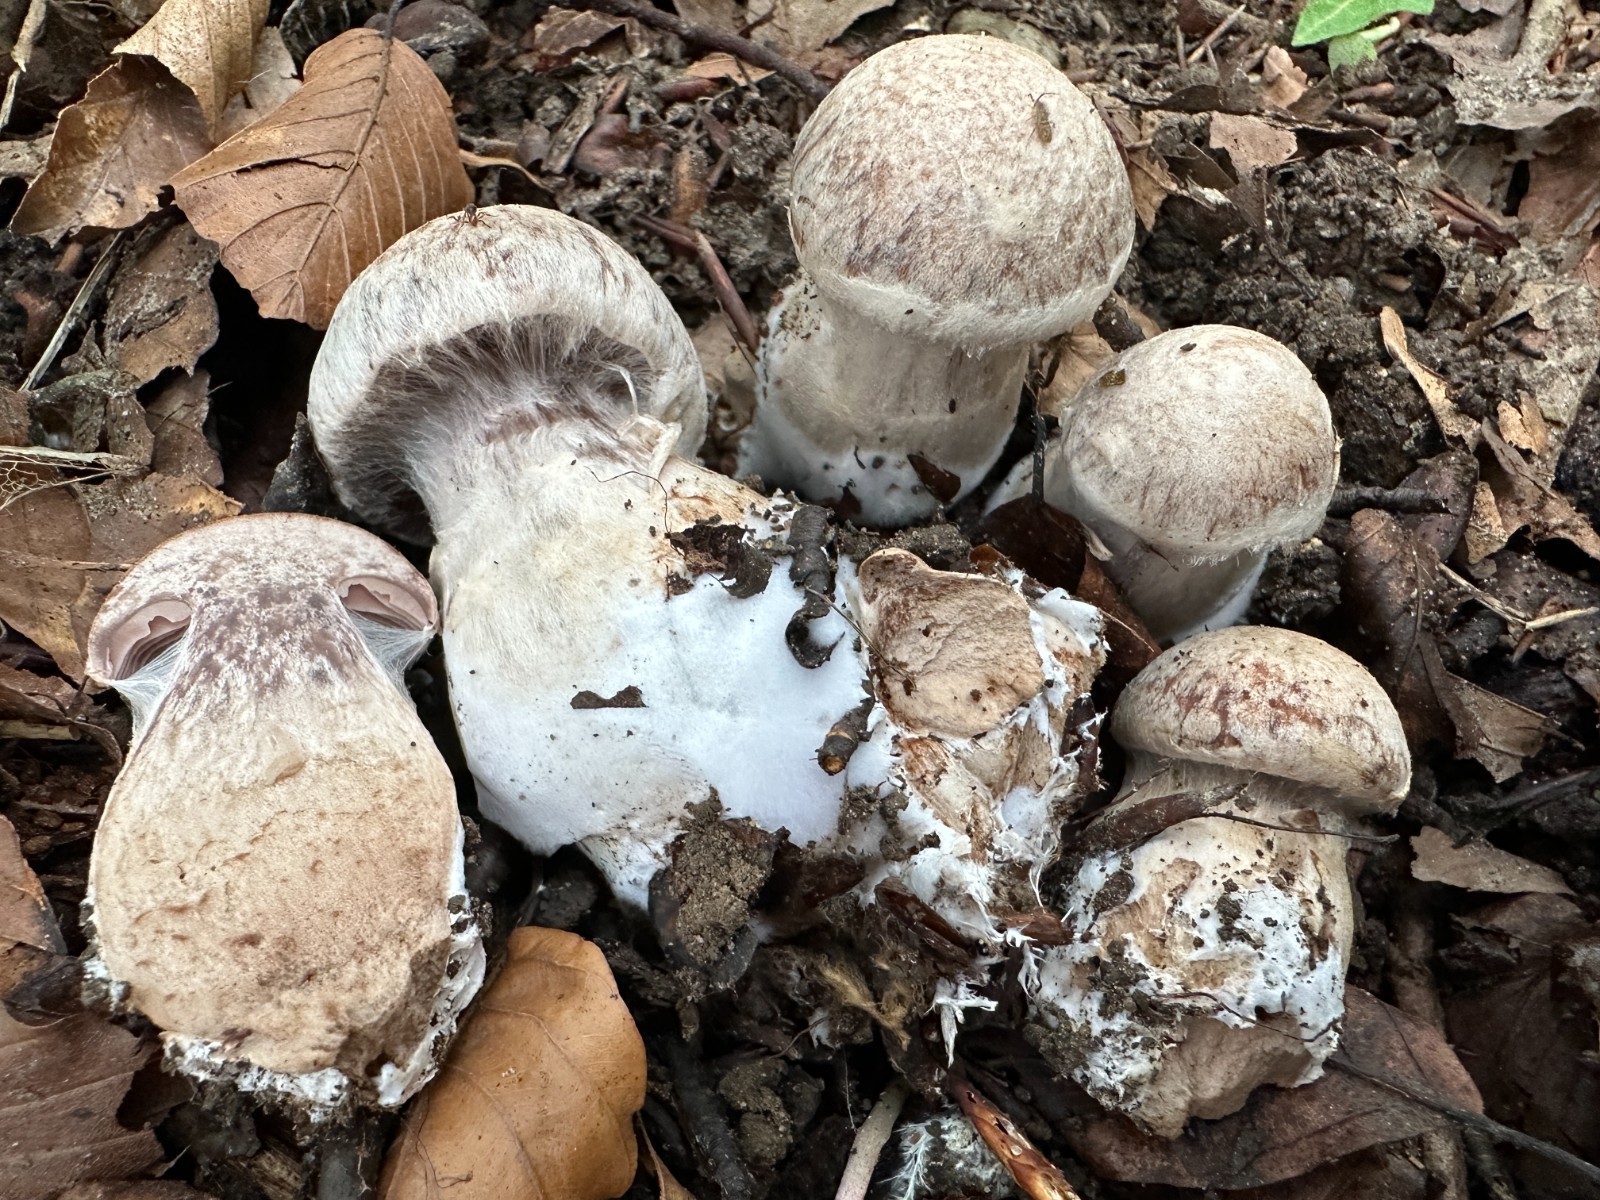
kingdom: Fungi
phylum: Basidiomycota
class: Agaricomycetes
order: Agaricales
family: Cortinariaceae
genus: Cortinarius
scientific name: Cortinarius
